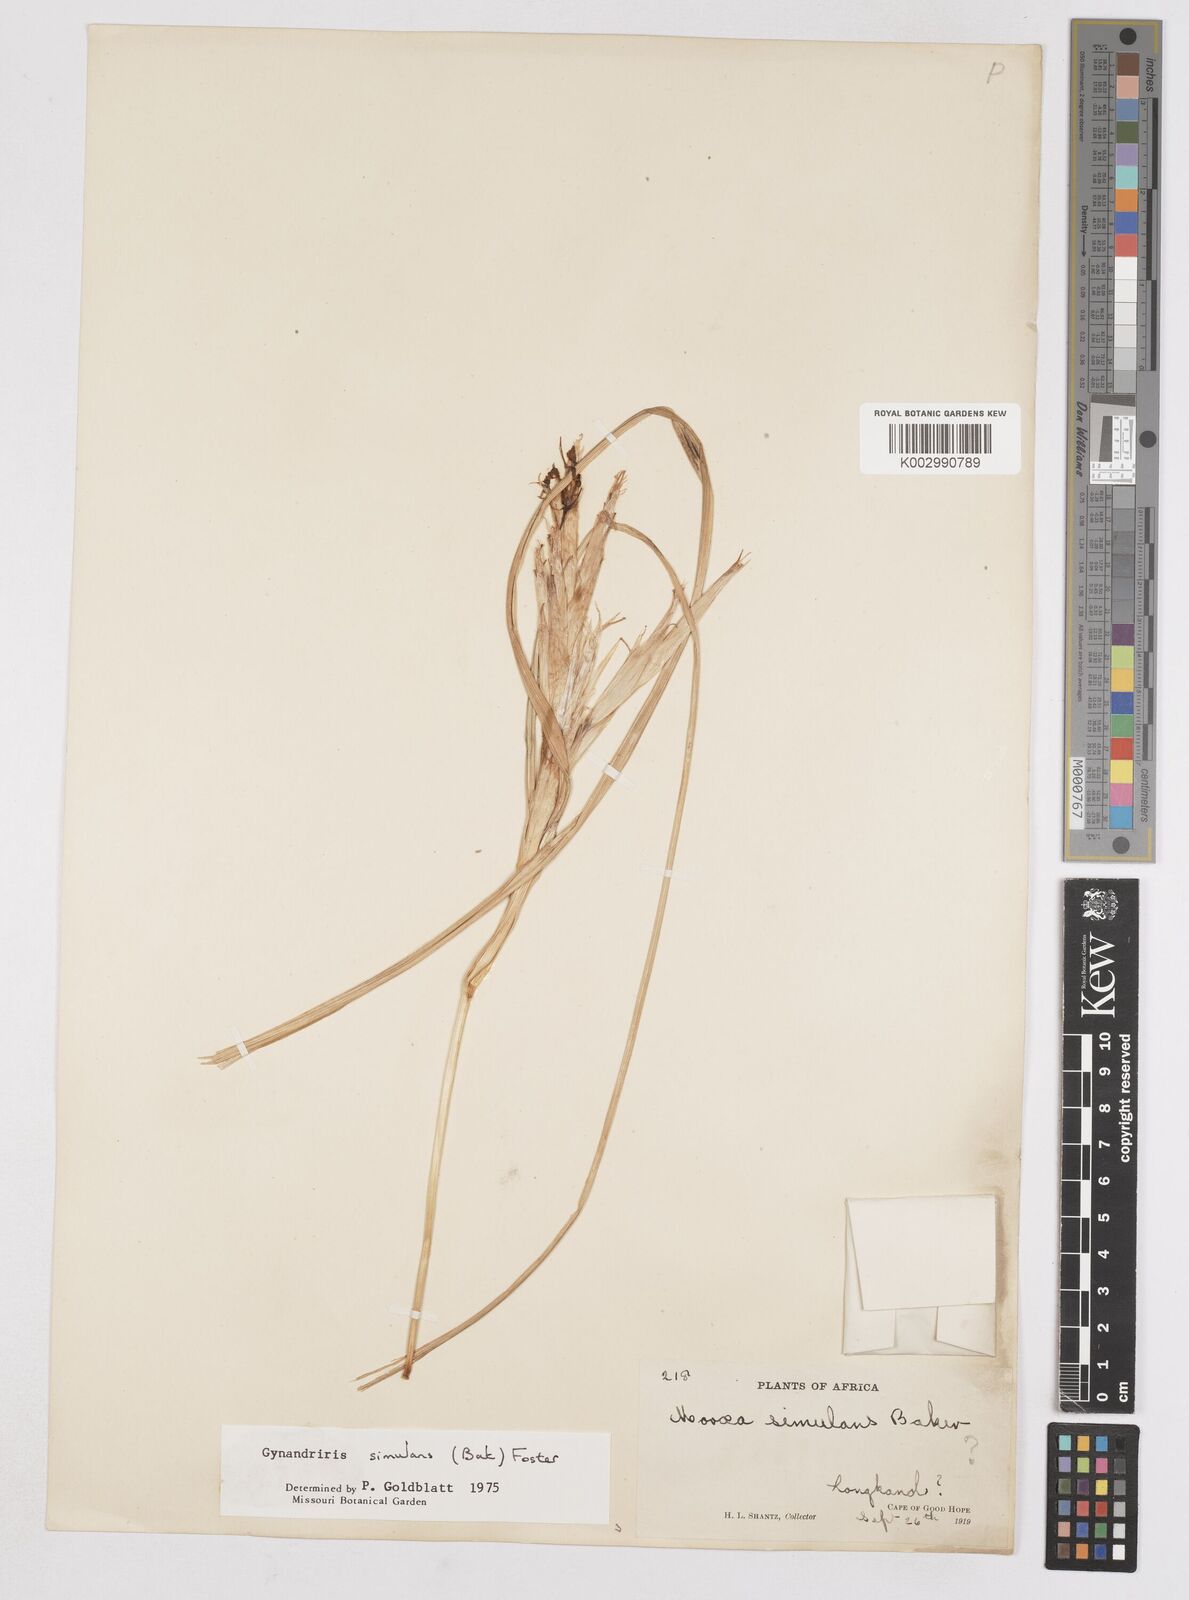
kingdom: Plantae
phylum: Tracheophyta
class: Liliopsida
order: Asparagales
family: Iridaceae
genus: Moraea
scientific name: Moraea simulans
